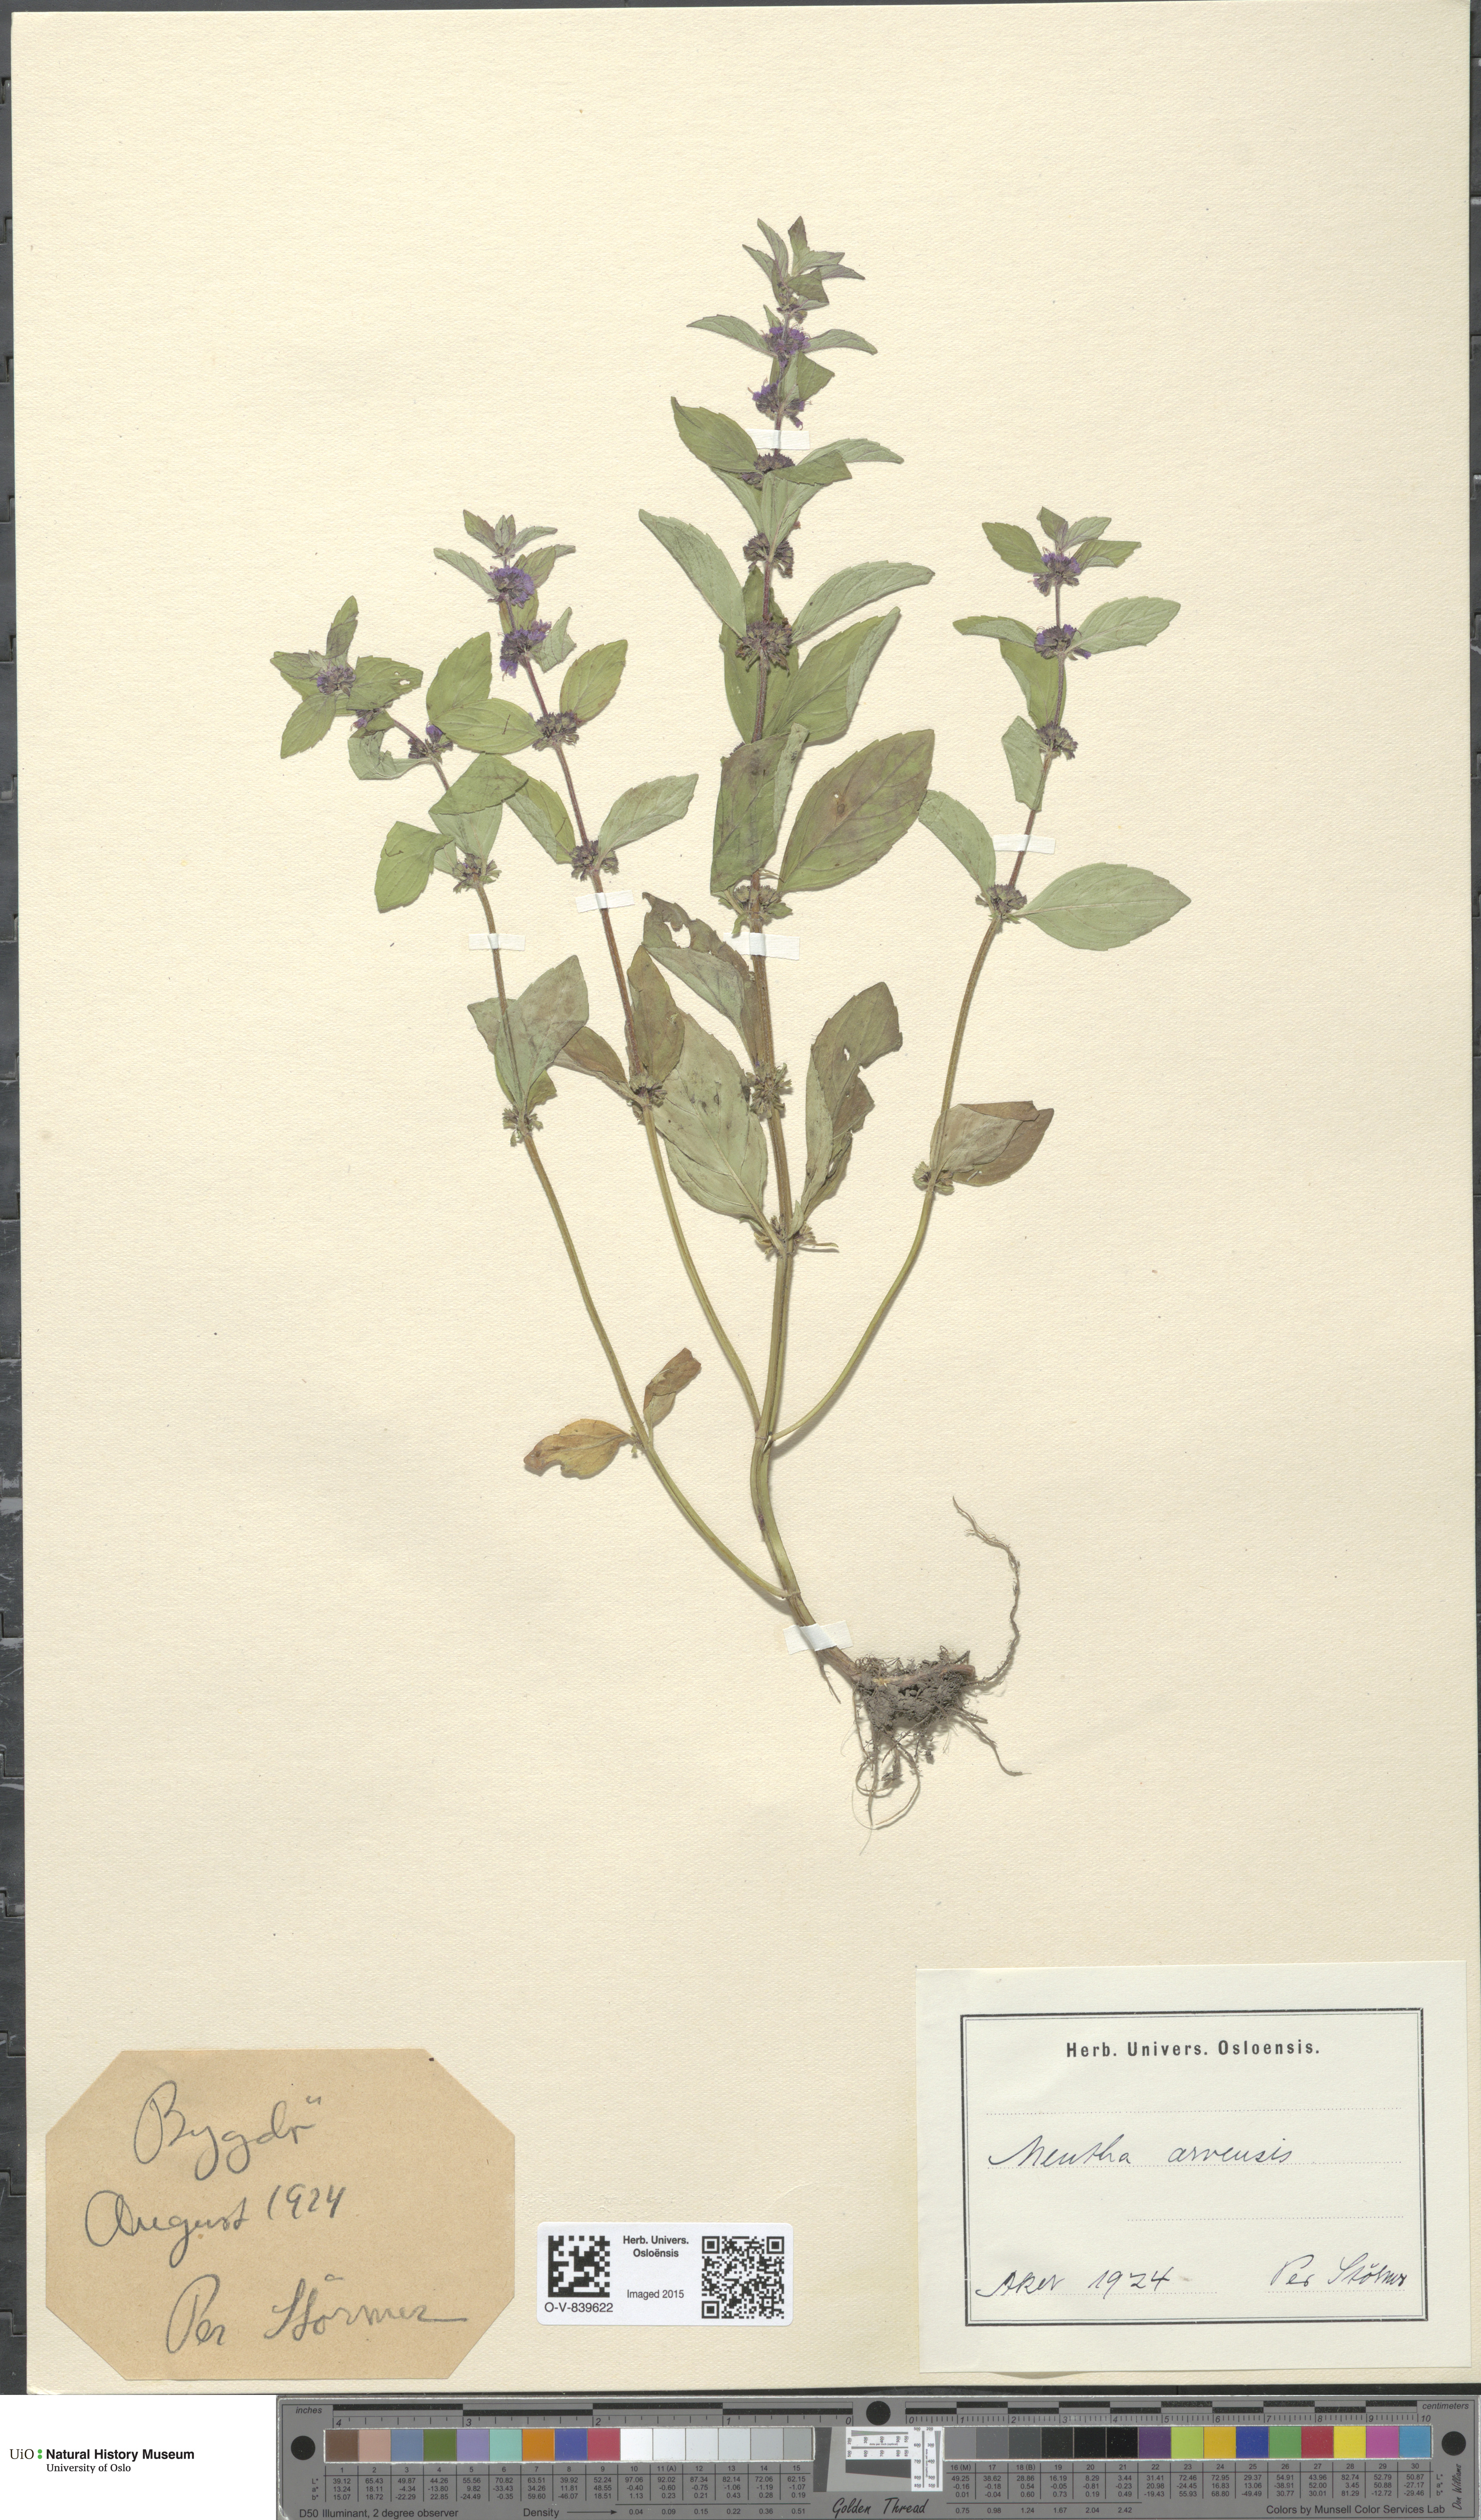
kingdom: Plantae
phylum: Tracheophyta
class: Magnoliopsida
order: Lamiales
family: Lamiaceae
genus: Mentha
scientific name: Mentha arvensis
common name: Corn mint
